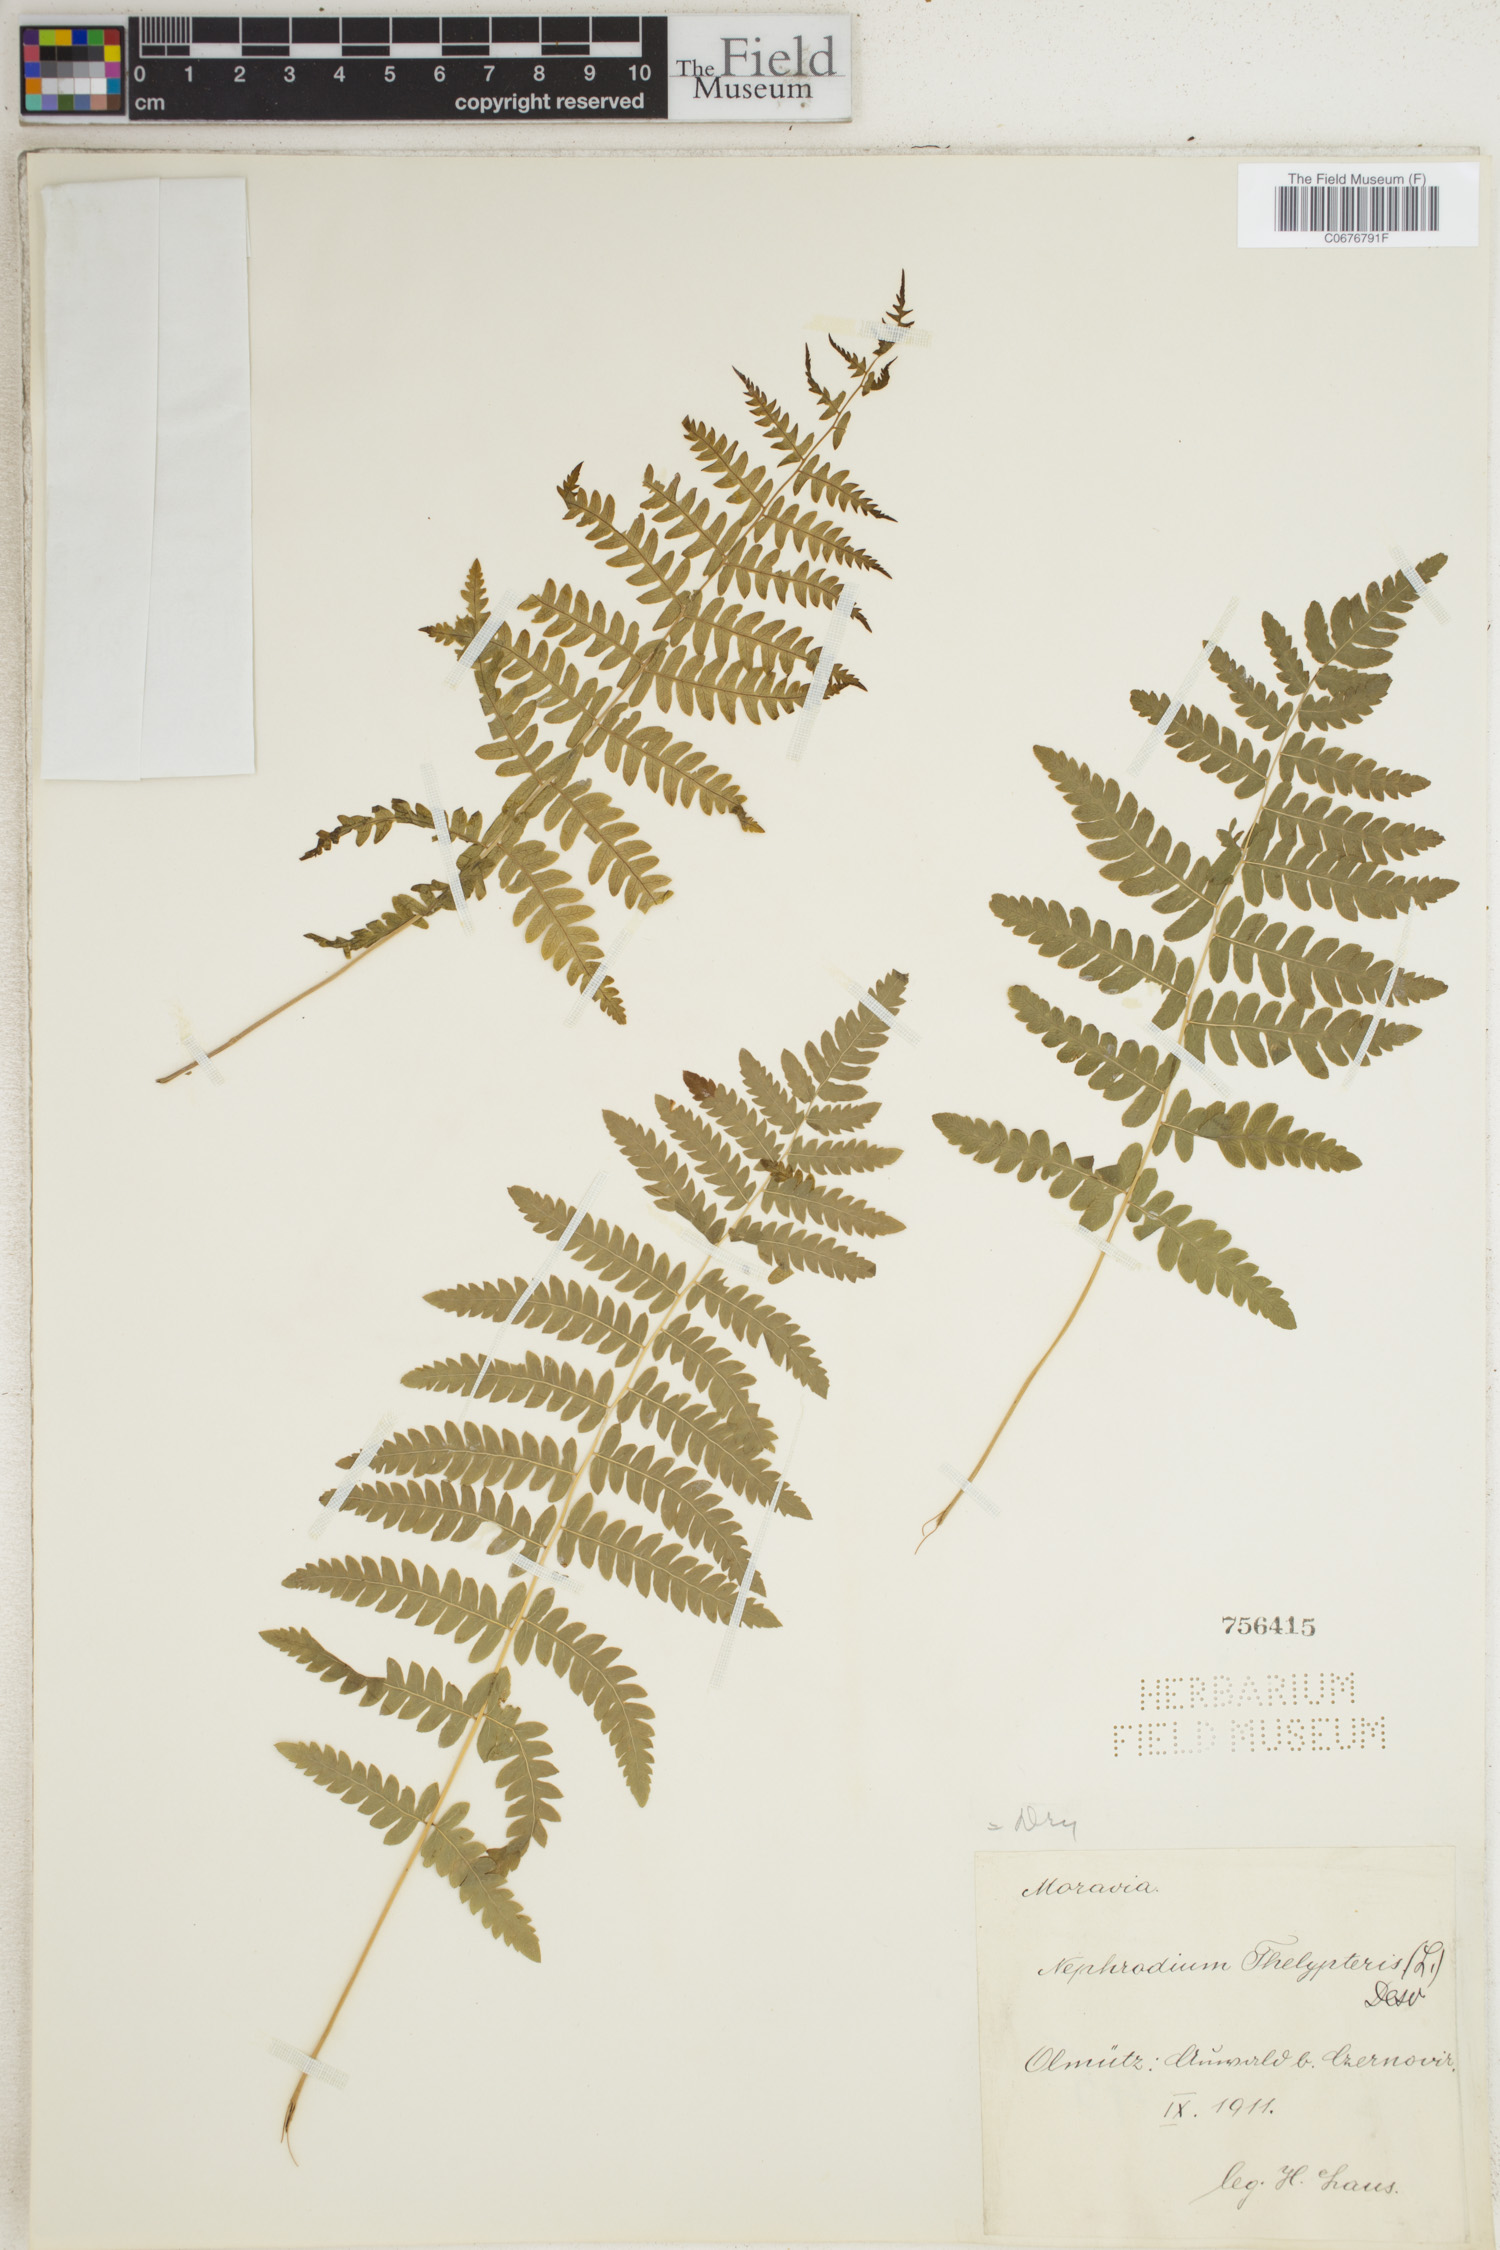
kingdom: Plantae
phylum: Tracheophyta
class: Polypodiopsida
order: Polypodiales
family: Thelypteridaceae
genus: Thelypteris
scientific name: Thelypteris palustris
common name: Marsh fern
